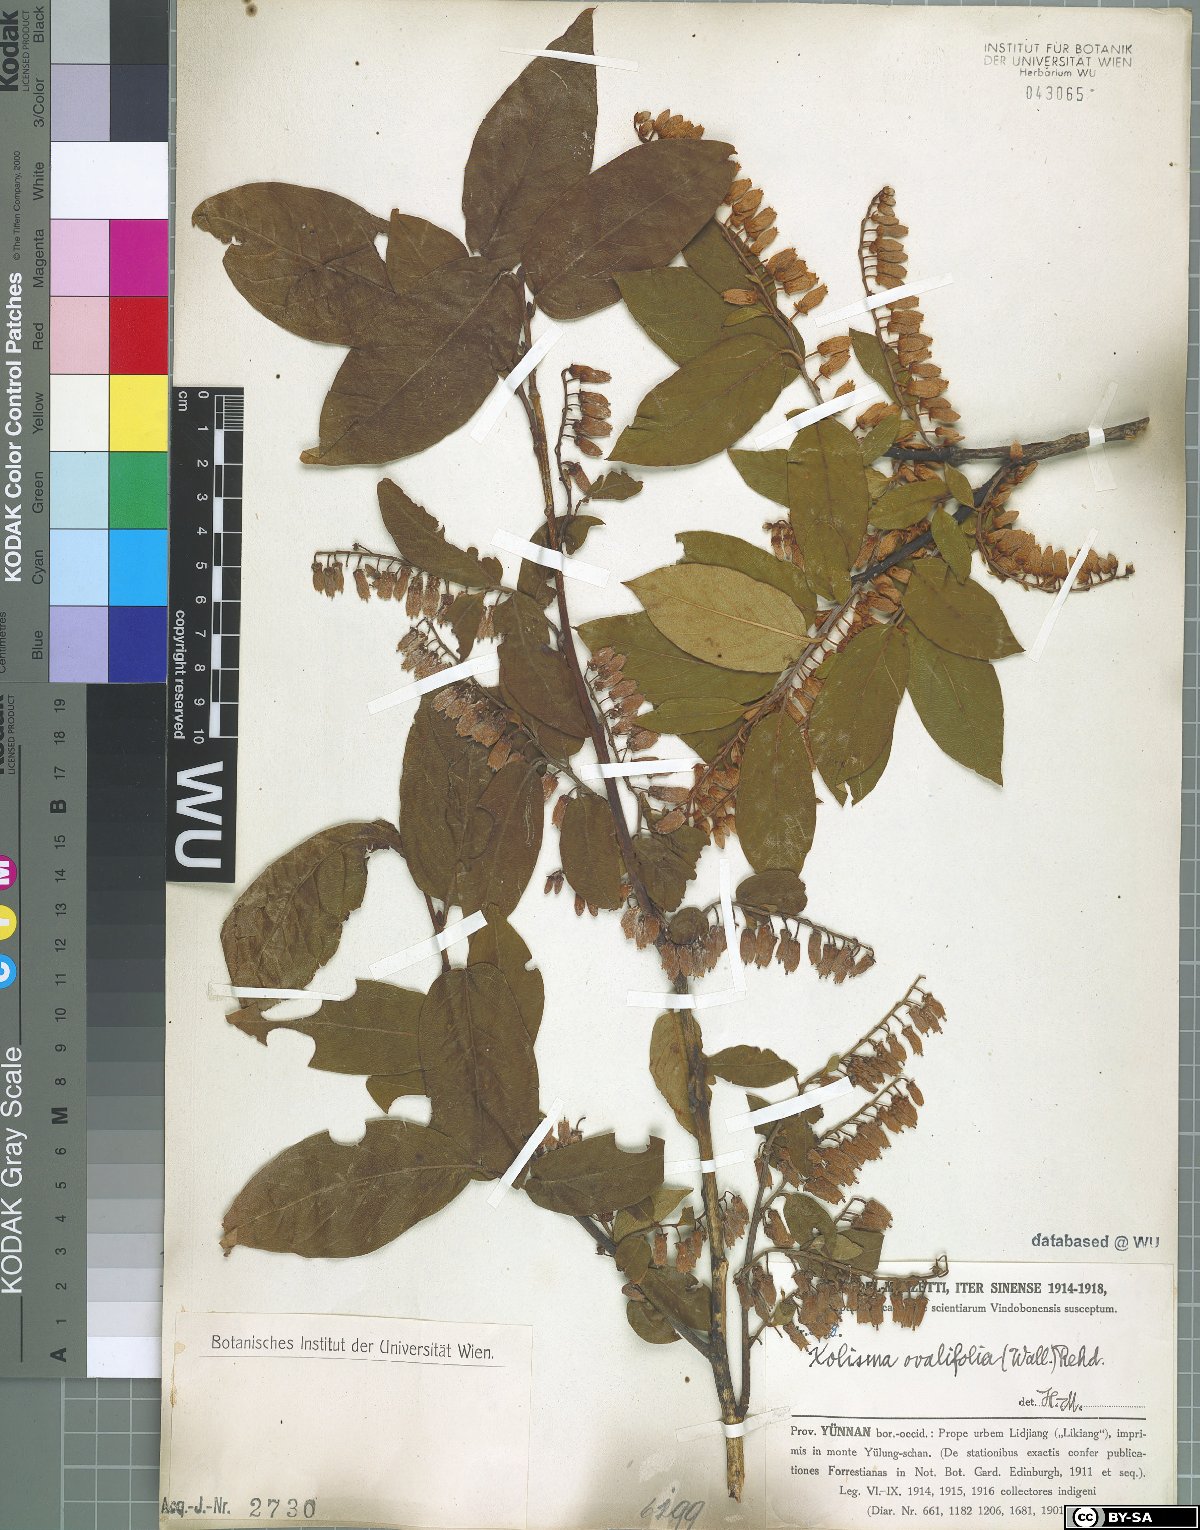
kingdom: Plantae
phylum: Tracheophyta
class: Magnoliopsida
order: Ericales
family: Ericaceae
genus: Lyonia
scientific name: Lyonia ovalifolia
